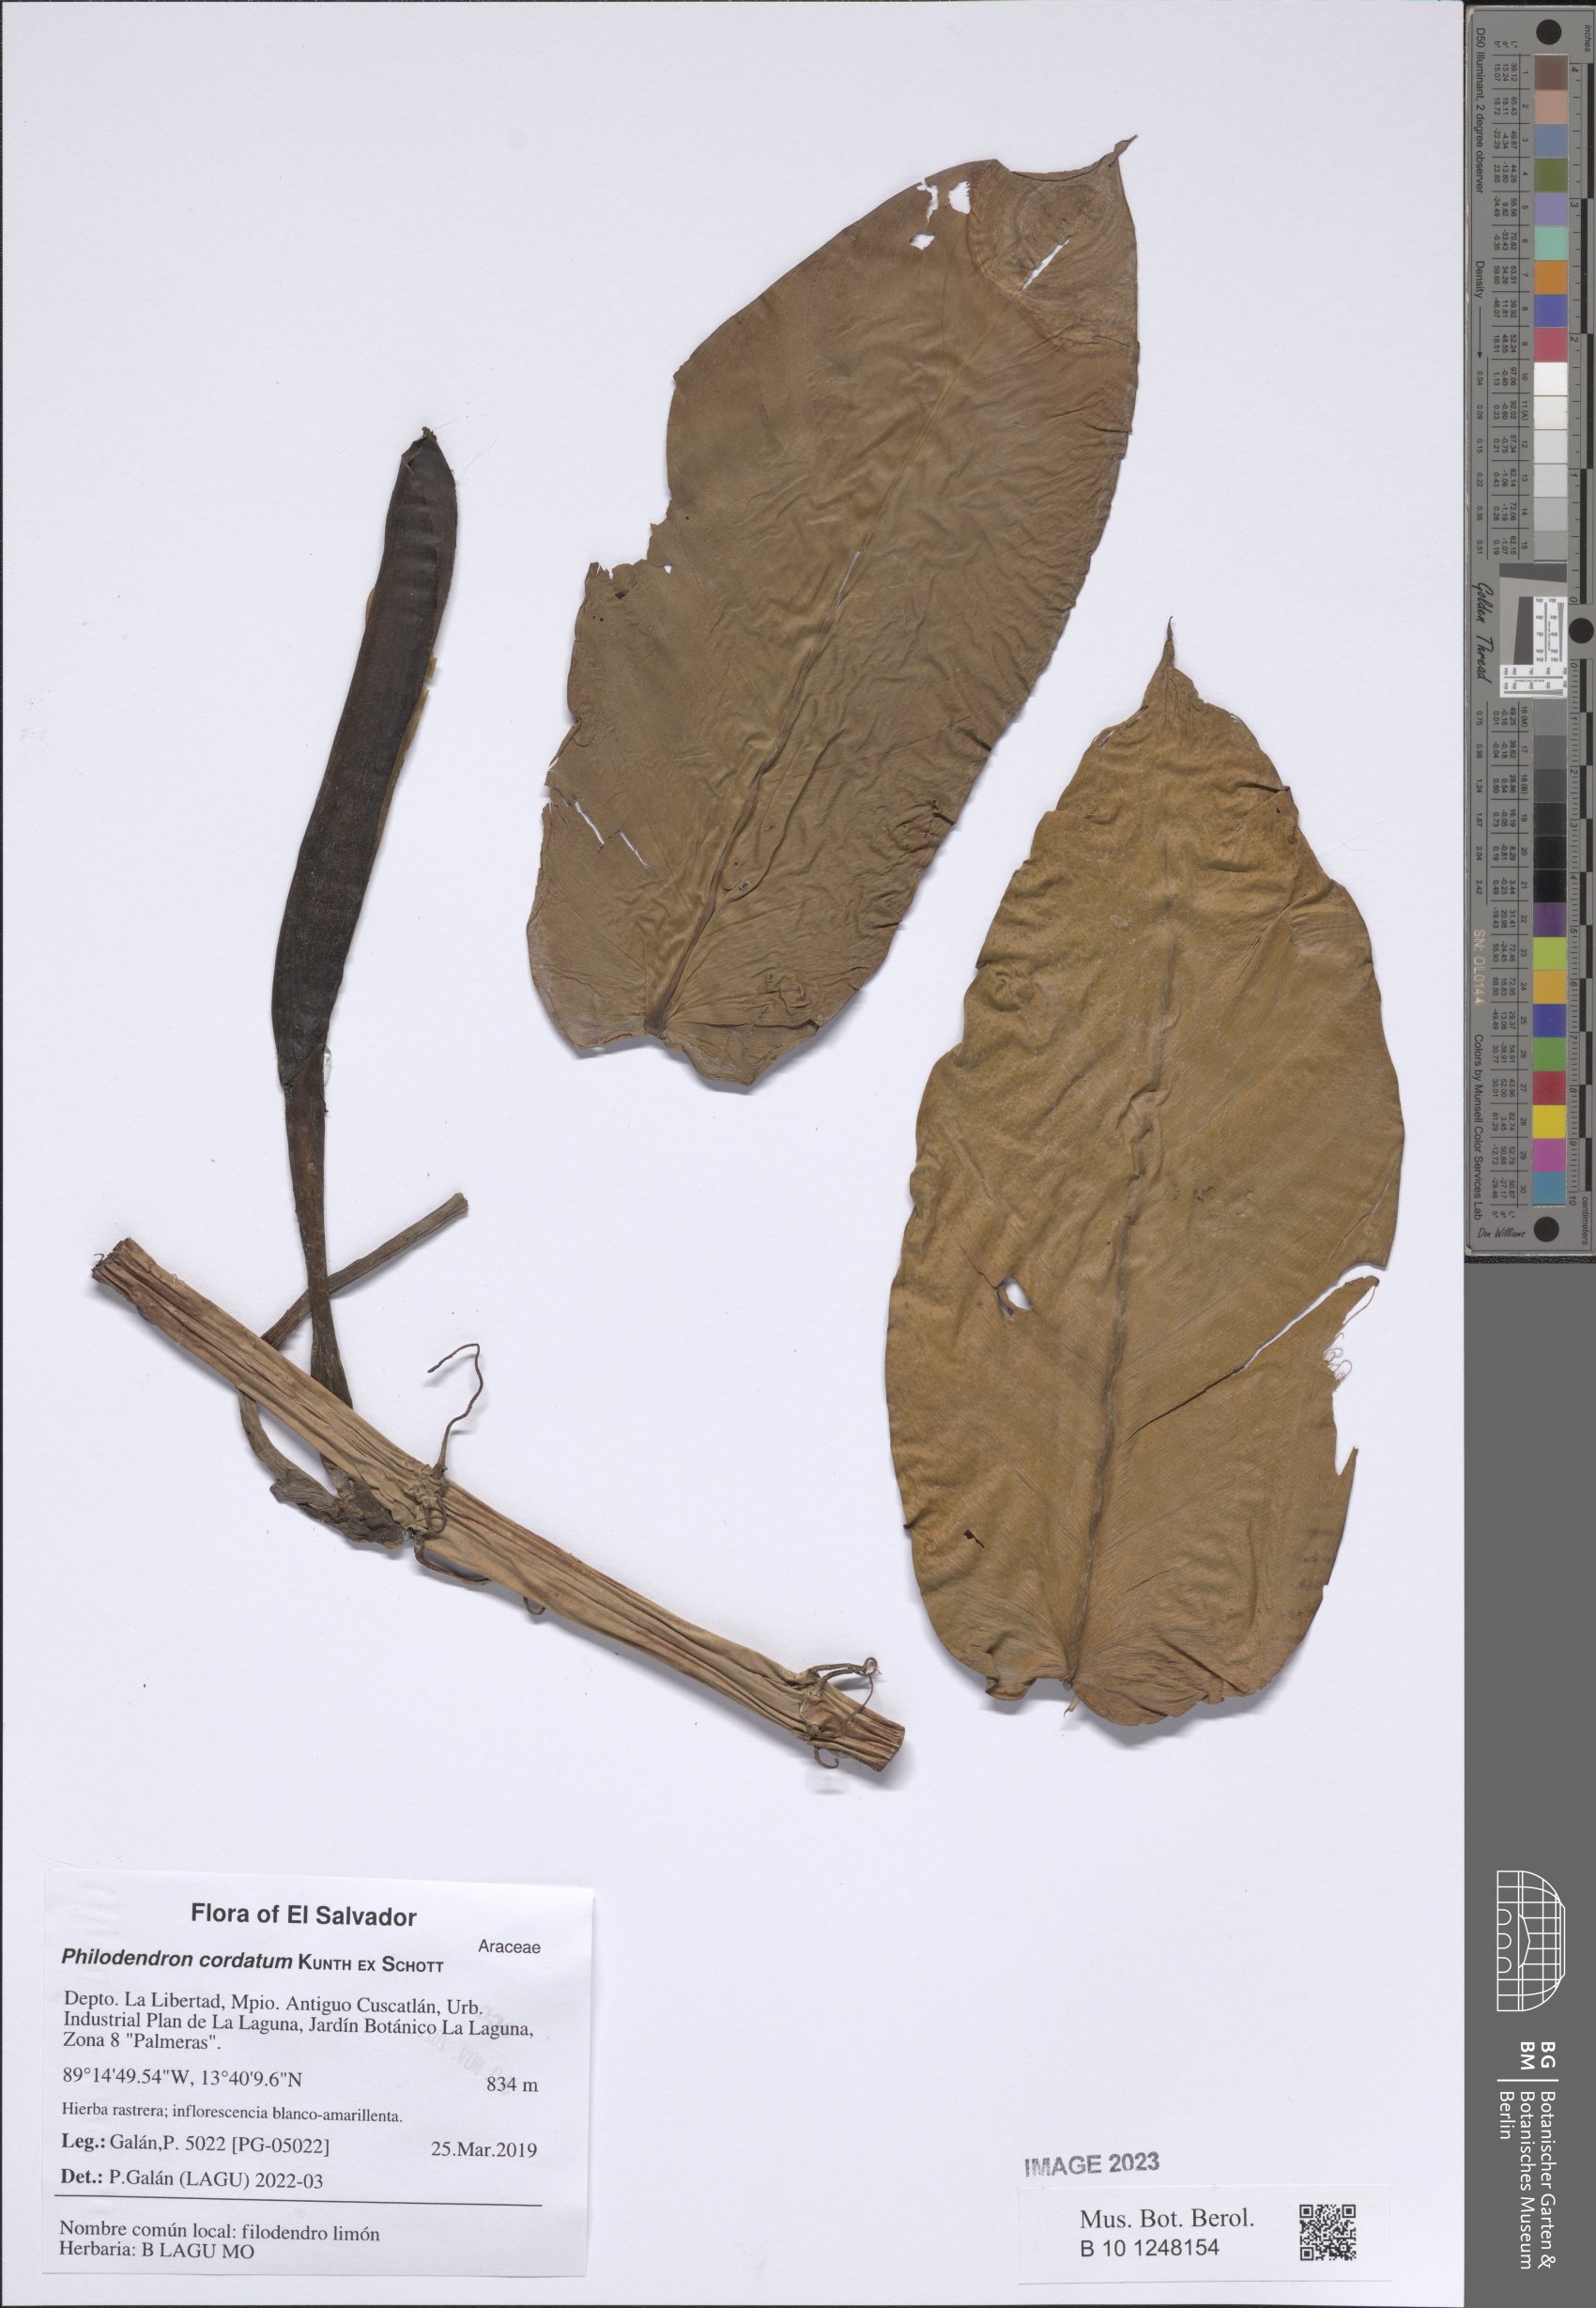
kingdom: Plantae
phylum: Tracheophyta
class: Liliopsida
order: Alismatales
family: Araceae
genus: Philodendron
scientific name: Philodendron cordatum
